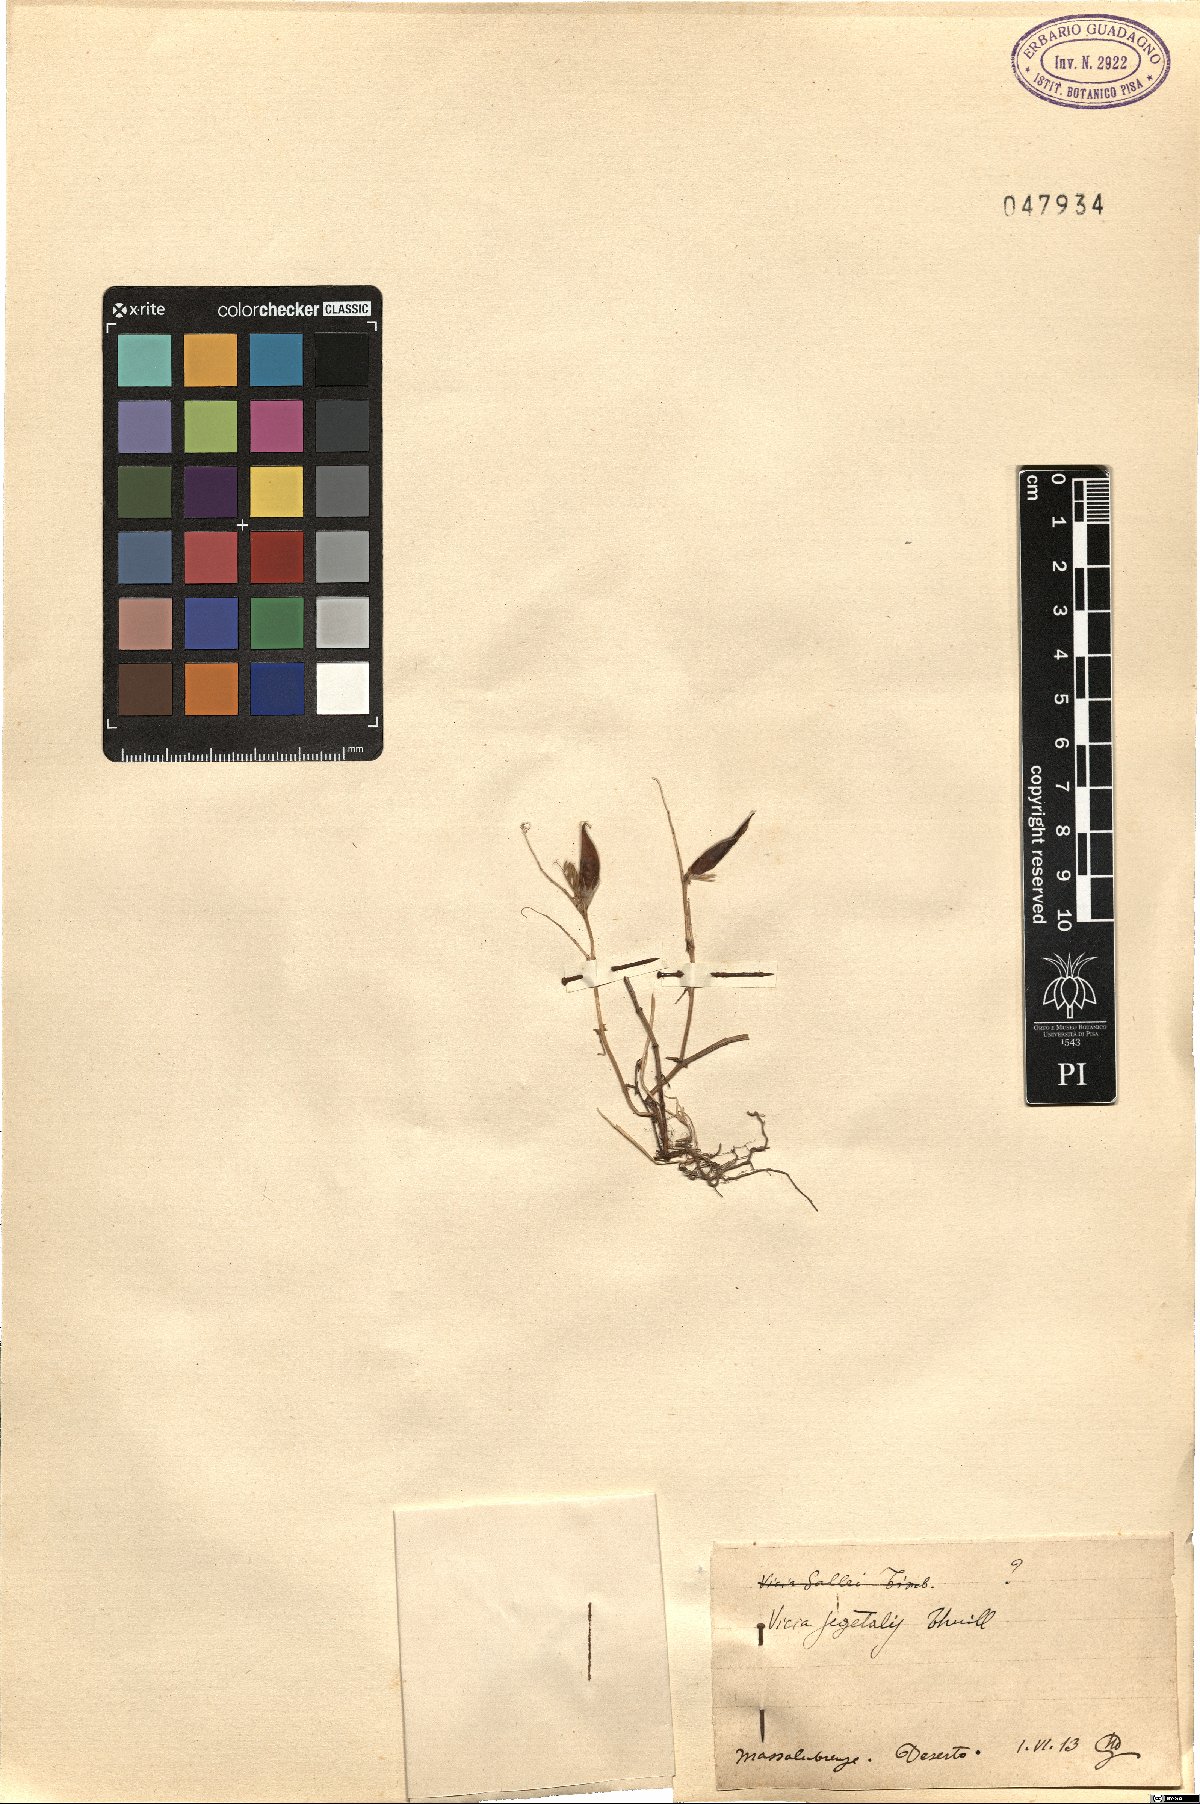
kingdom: Plantae
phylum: Tracheophyta
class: Magnoliopsida
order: Fabales
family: Fabaceae
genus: Vicia
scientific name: Vicia sativa
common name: Garden vetch
